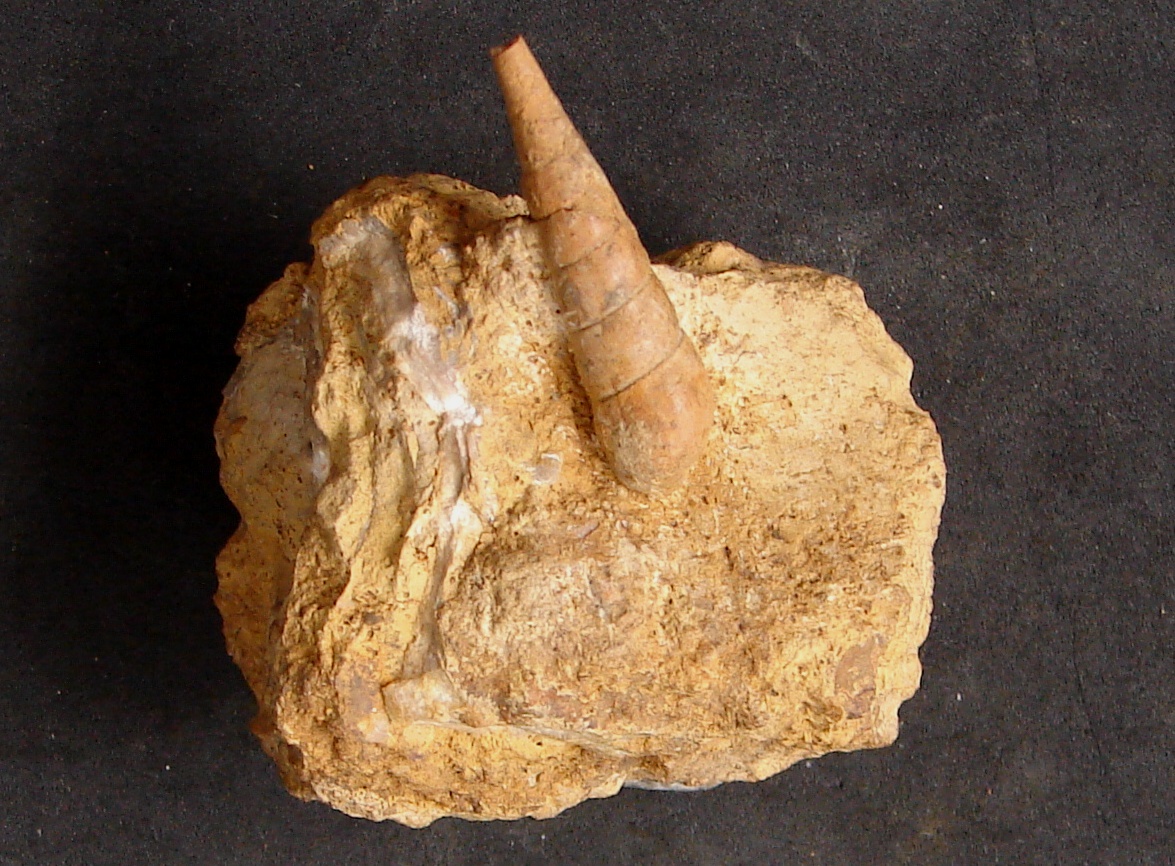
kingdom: Animalia
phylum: Mollusca
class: Gastropoda
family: Pseudomelaniidae
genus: Pseudomelania
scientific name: Pseudomelania
